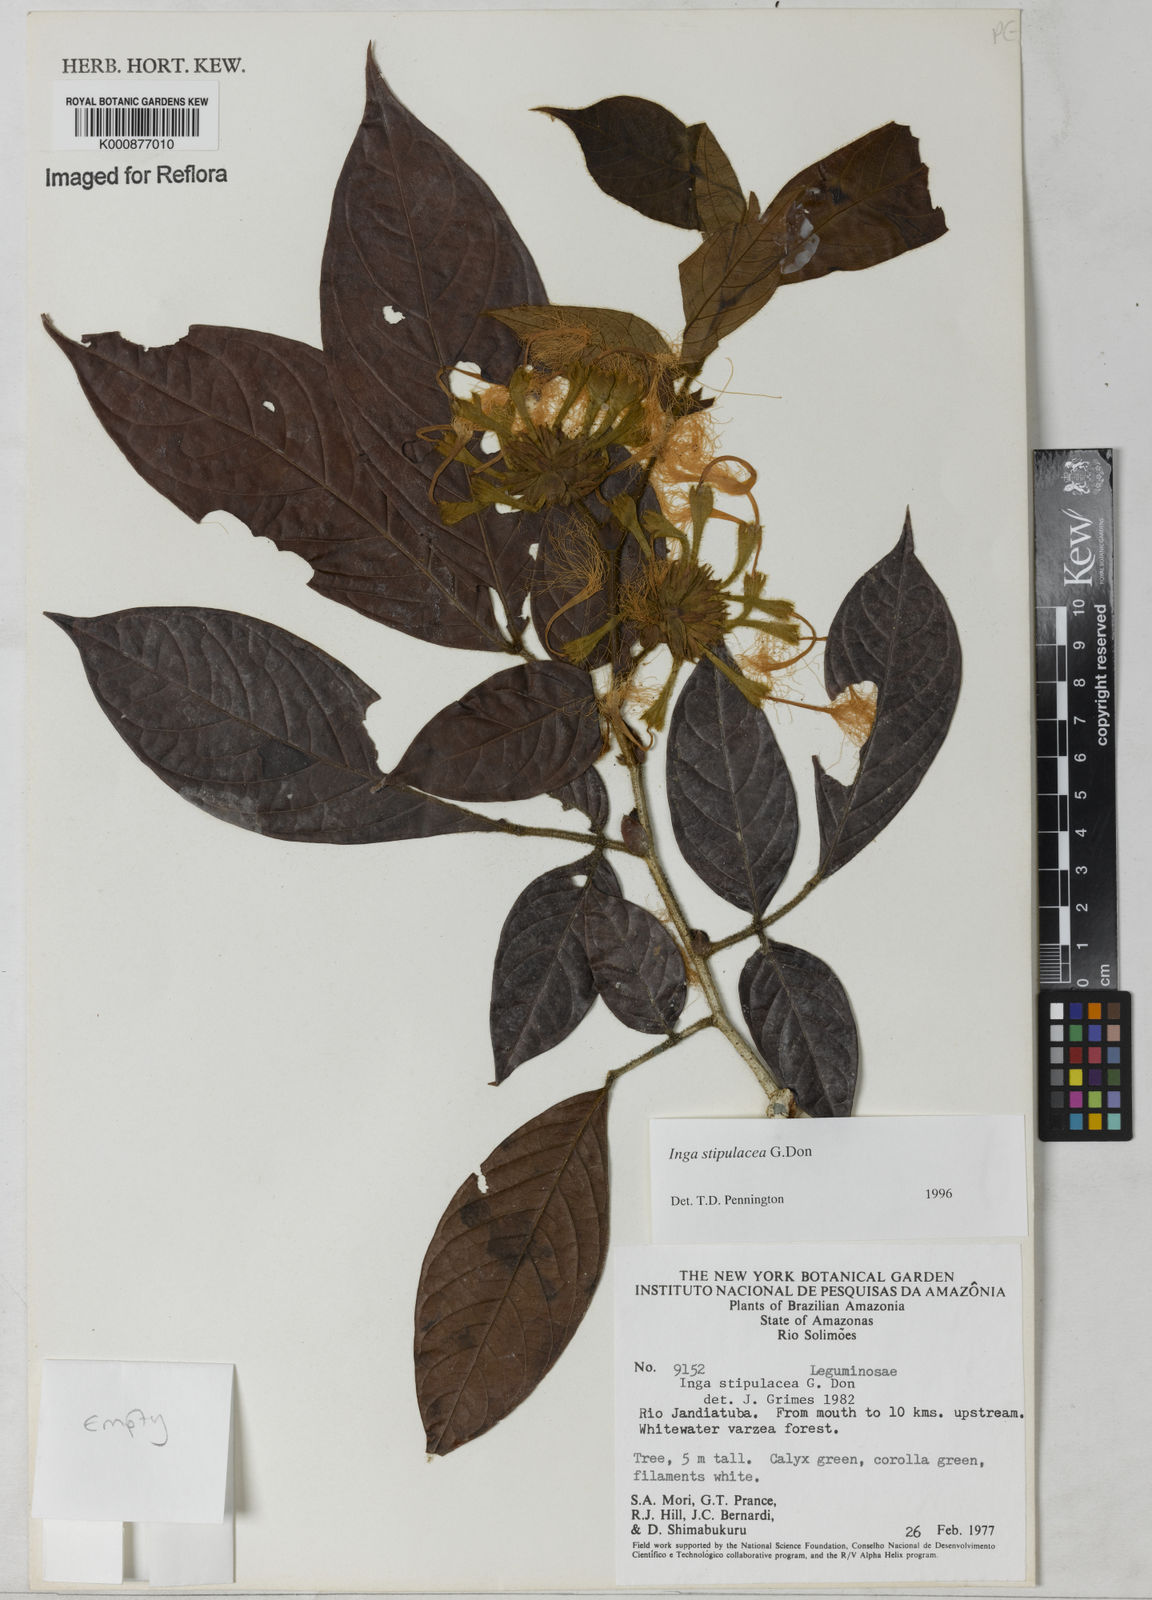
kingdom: Plantae
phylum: Tracheophyta
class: Magnoliopsida
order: Fabales
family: Fabaceae
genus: Inga
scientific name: Inga stipulacea
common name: Stipulate inga
